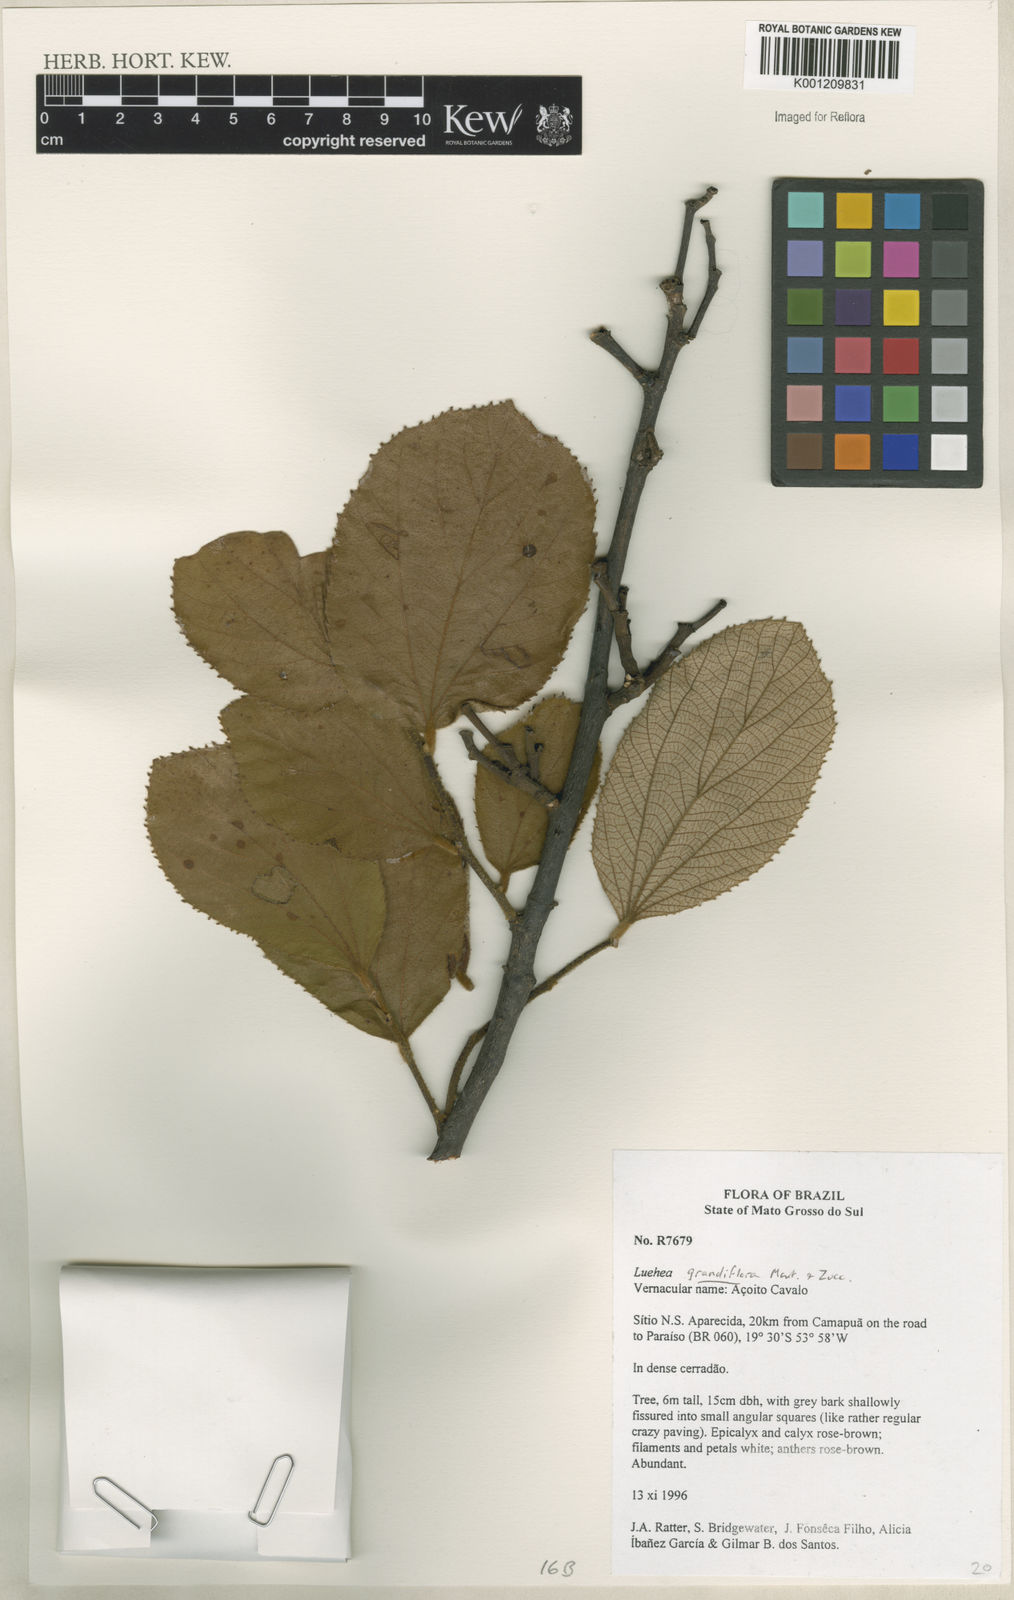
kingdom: Plantae
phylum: Tracheophyta
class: Magnoliopsida
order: Malvales
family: Malvaceae
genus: Luehea
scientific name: Luehea grandiflora
